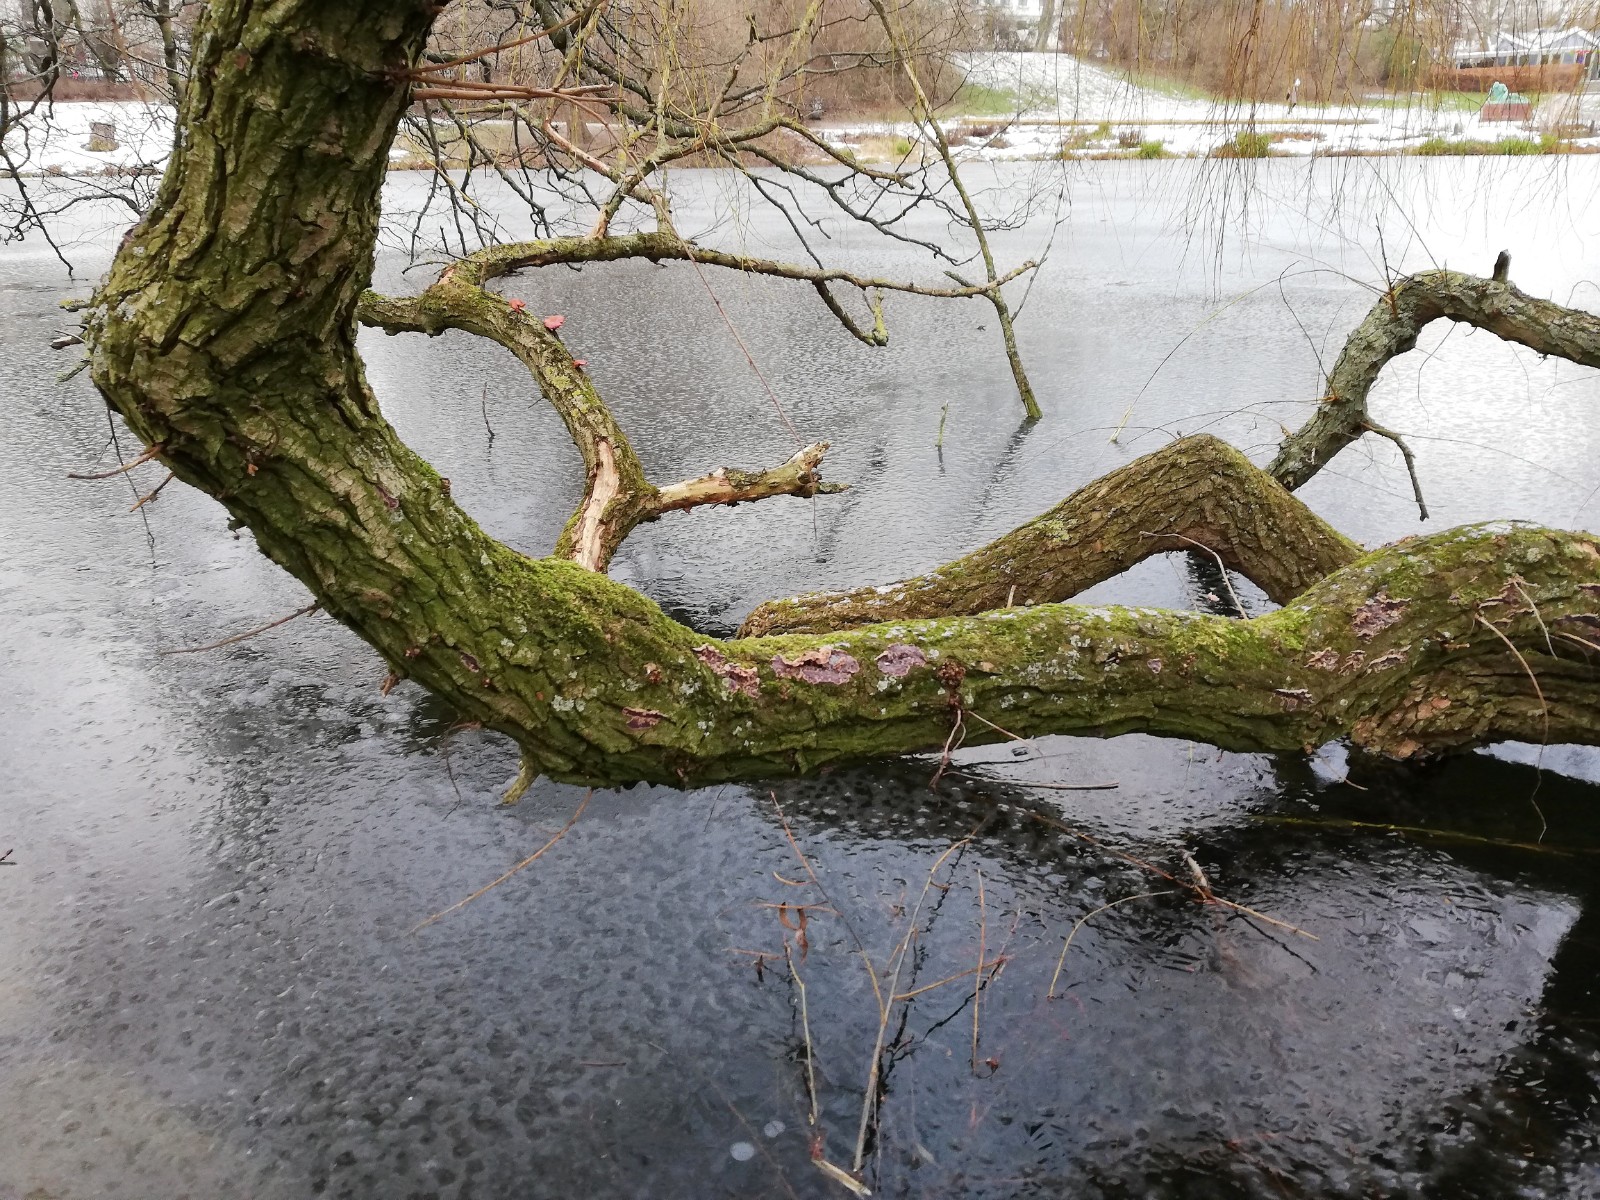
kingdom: Fungi
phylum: Basidiomycota
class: Agaricomycetes
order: Agaricales
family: Cyphellaceae
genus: Chondrostereum
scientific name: Chondrostereum purpureum
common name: purpurlædersvamp
